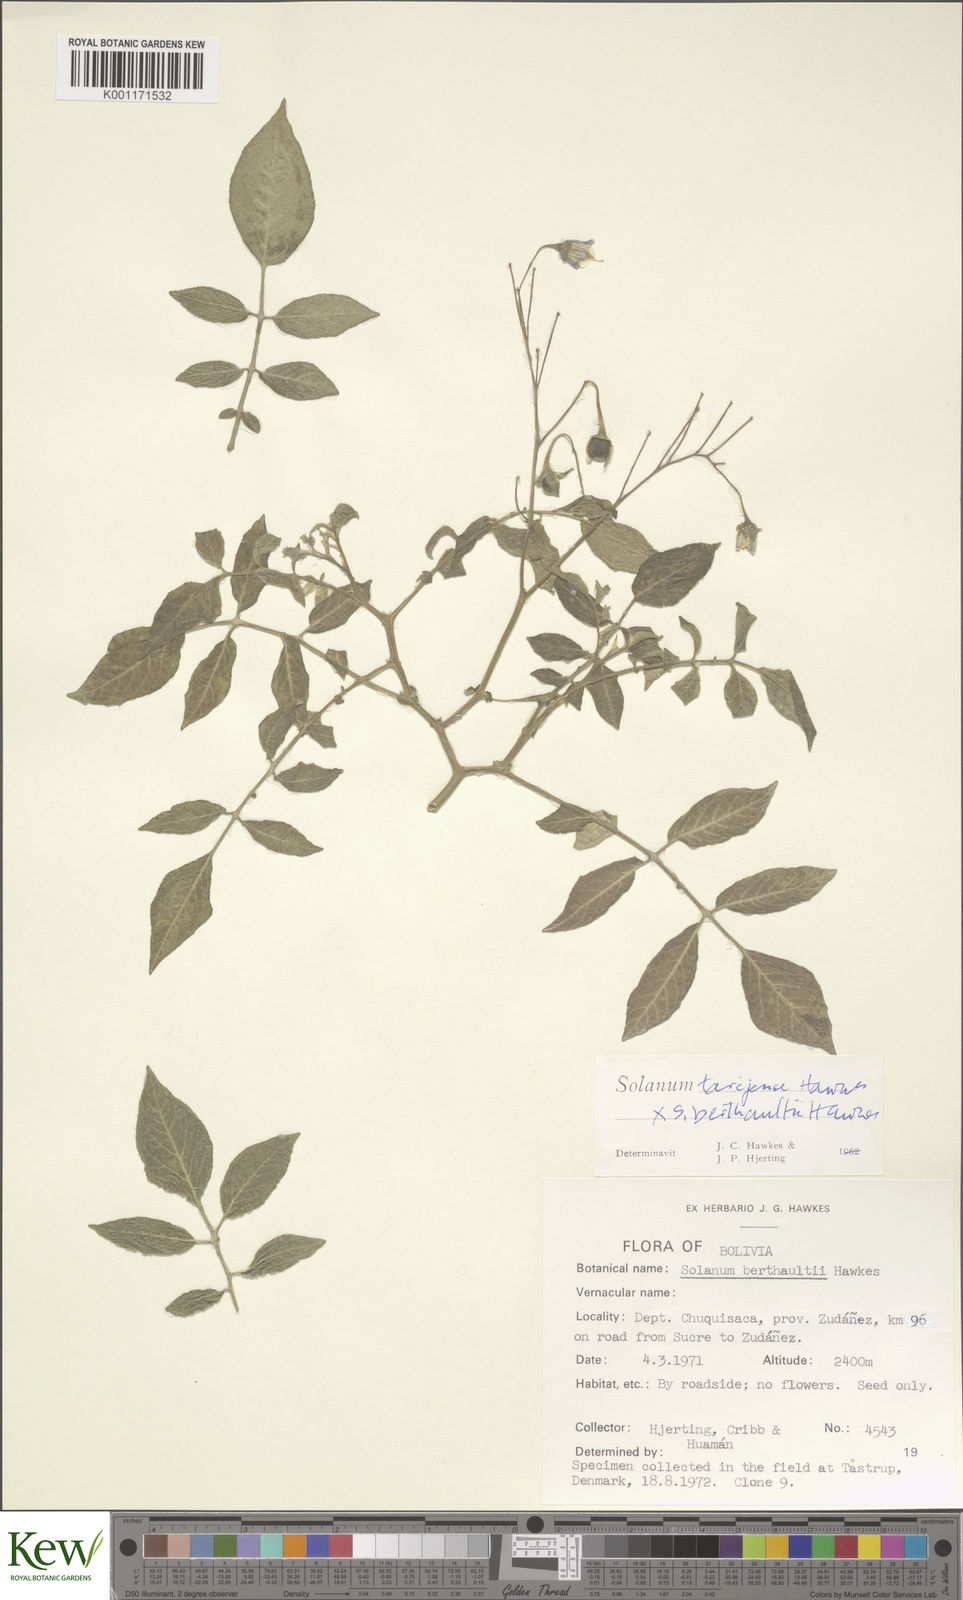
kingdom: Plantae
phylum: Tracheophyta
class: Magnoliopsida
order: Solanales
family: Solanaceae
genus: Solanum
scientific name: Solanum tarijense
